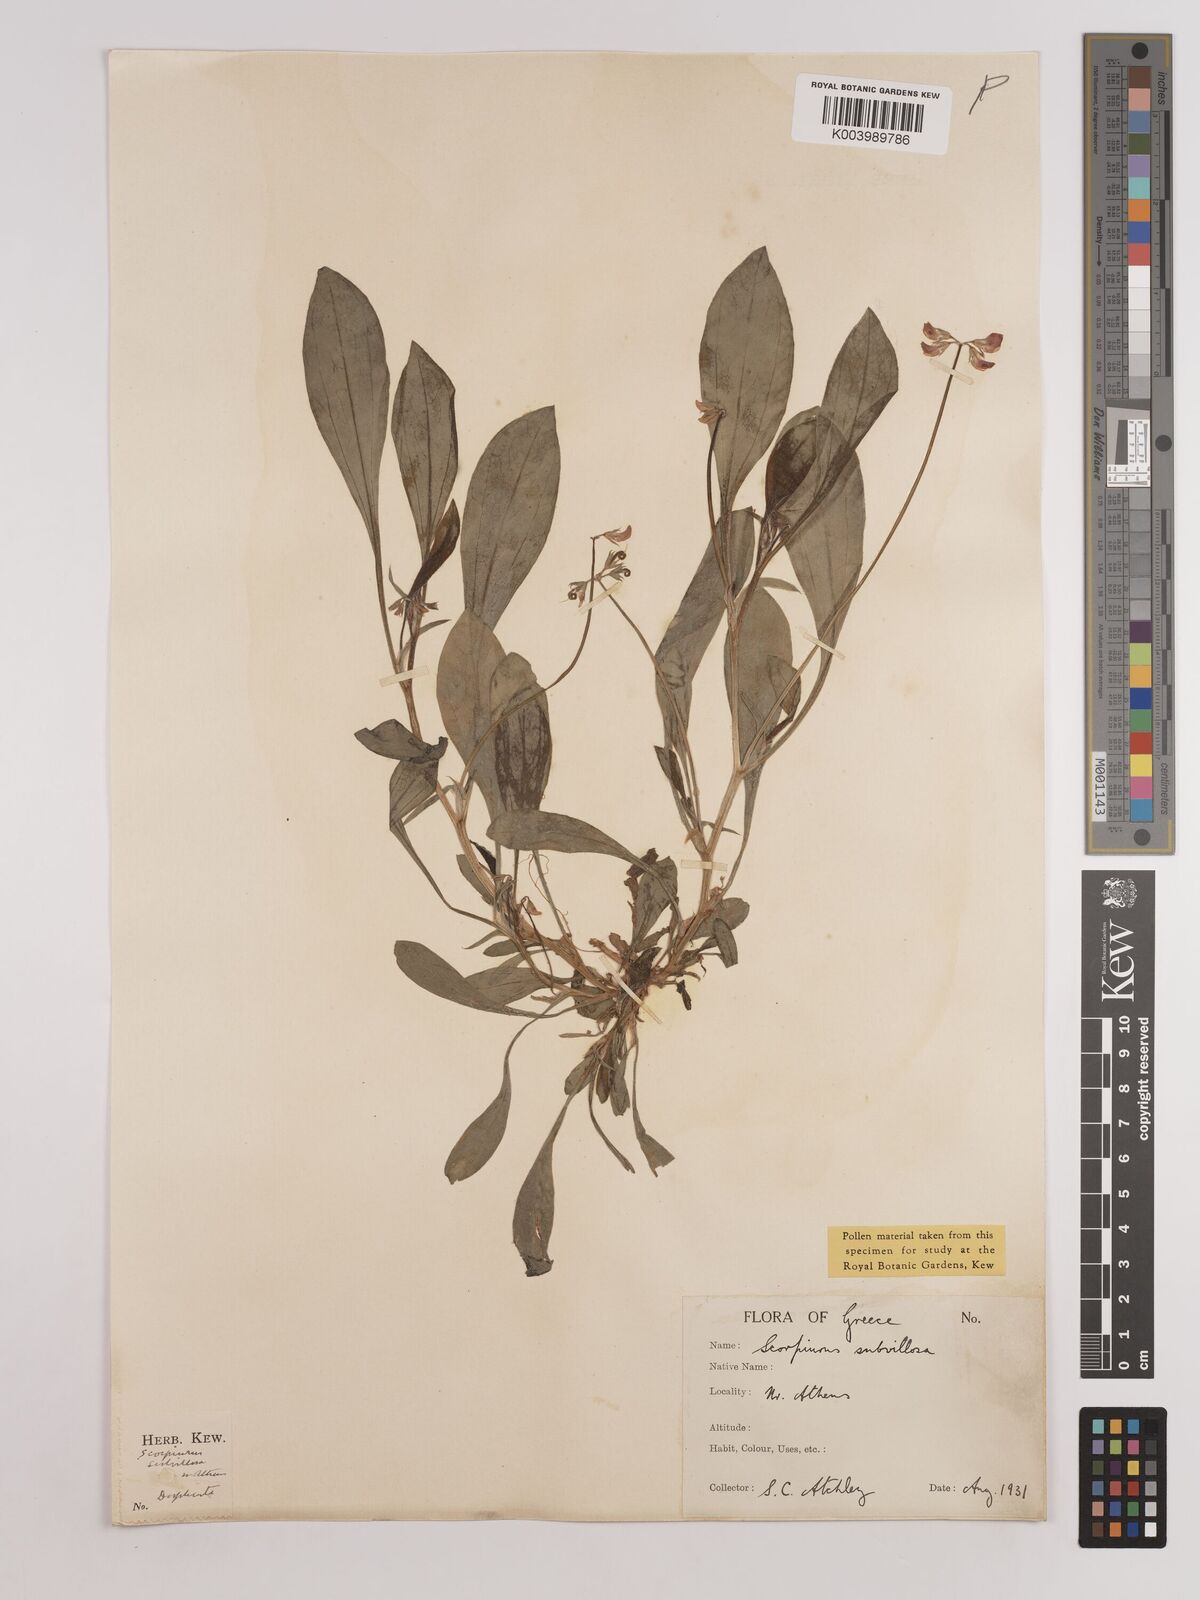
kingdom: Plantae
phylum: Tracheophyta
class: Magnoliopsida
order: Fabales
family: Fabaceae
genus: Scorpiurus
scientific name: Scorpiurus muricatus
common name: Caterpillar-plant
